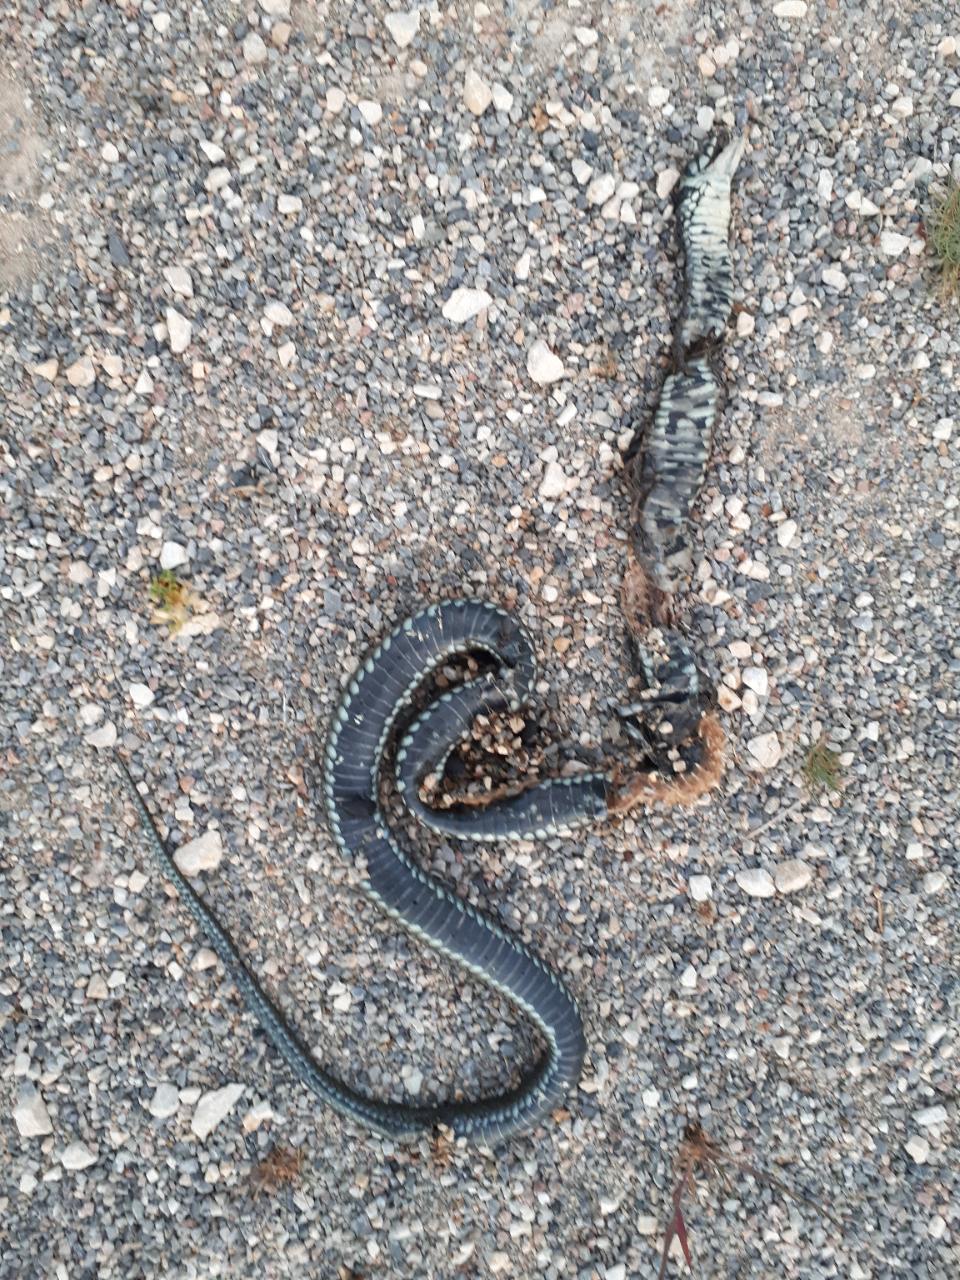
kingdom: Animalia
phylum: Chordata
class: Squamata
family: Colubridae
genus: Natrix
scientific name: Natrix natrix
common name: Grass snake
